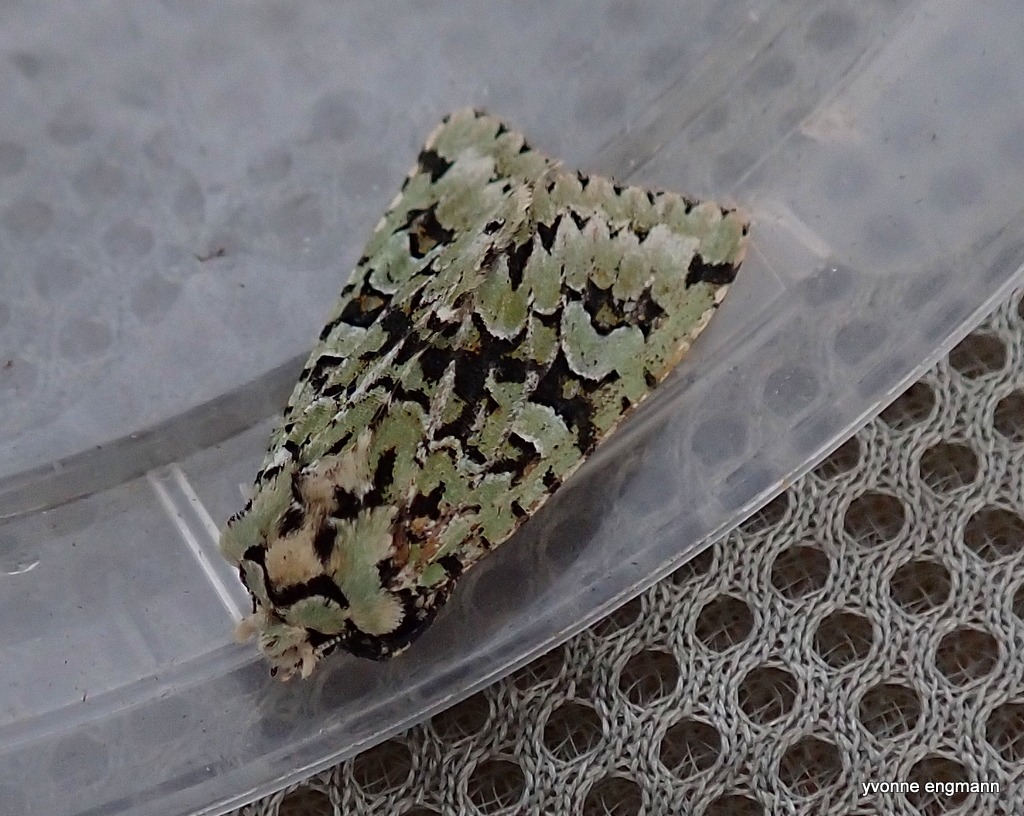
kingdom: Animalia
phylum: Arthropoda
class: Insecta
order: Lepidoptera
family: Noctuidae
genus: Griposia
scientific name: Griposia aprilina
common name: Aprilugle
